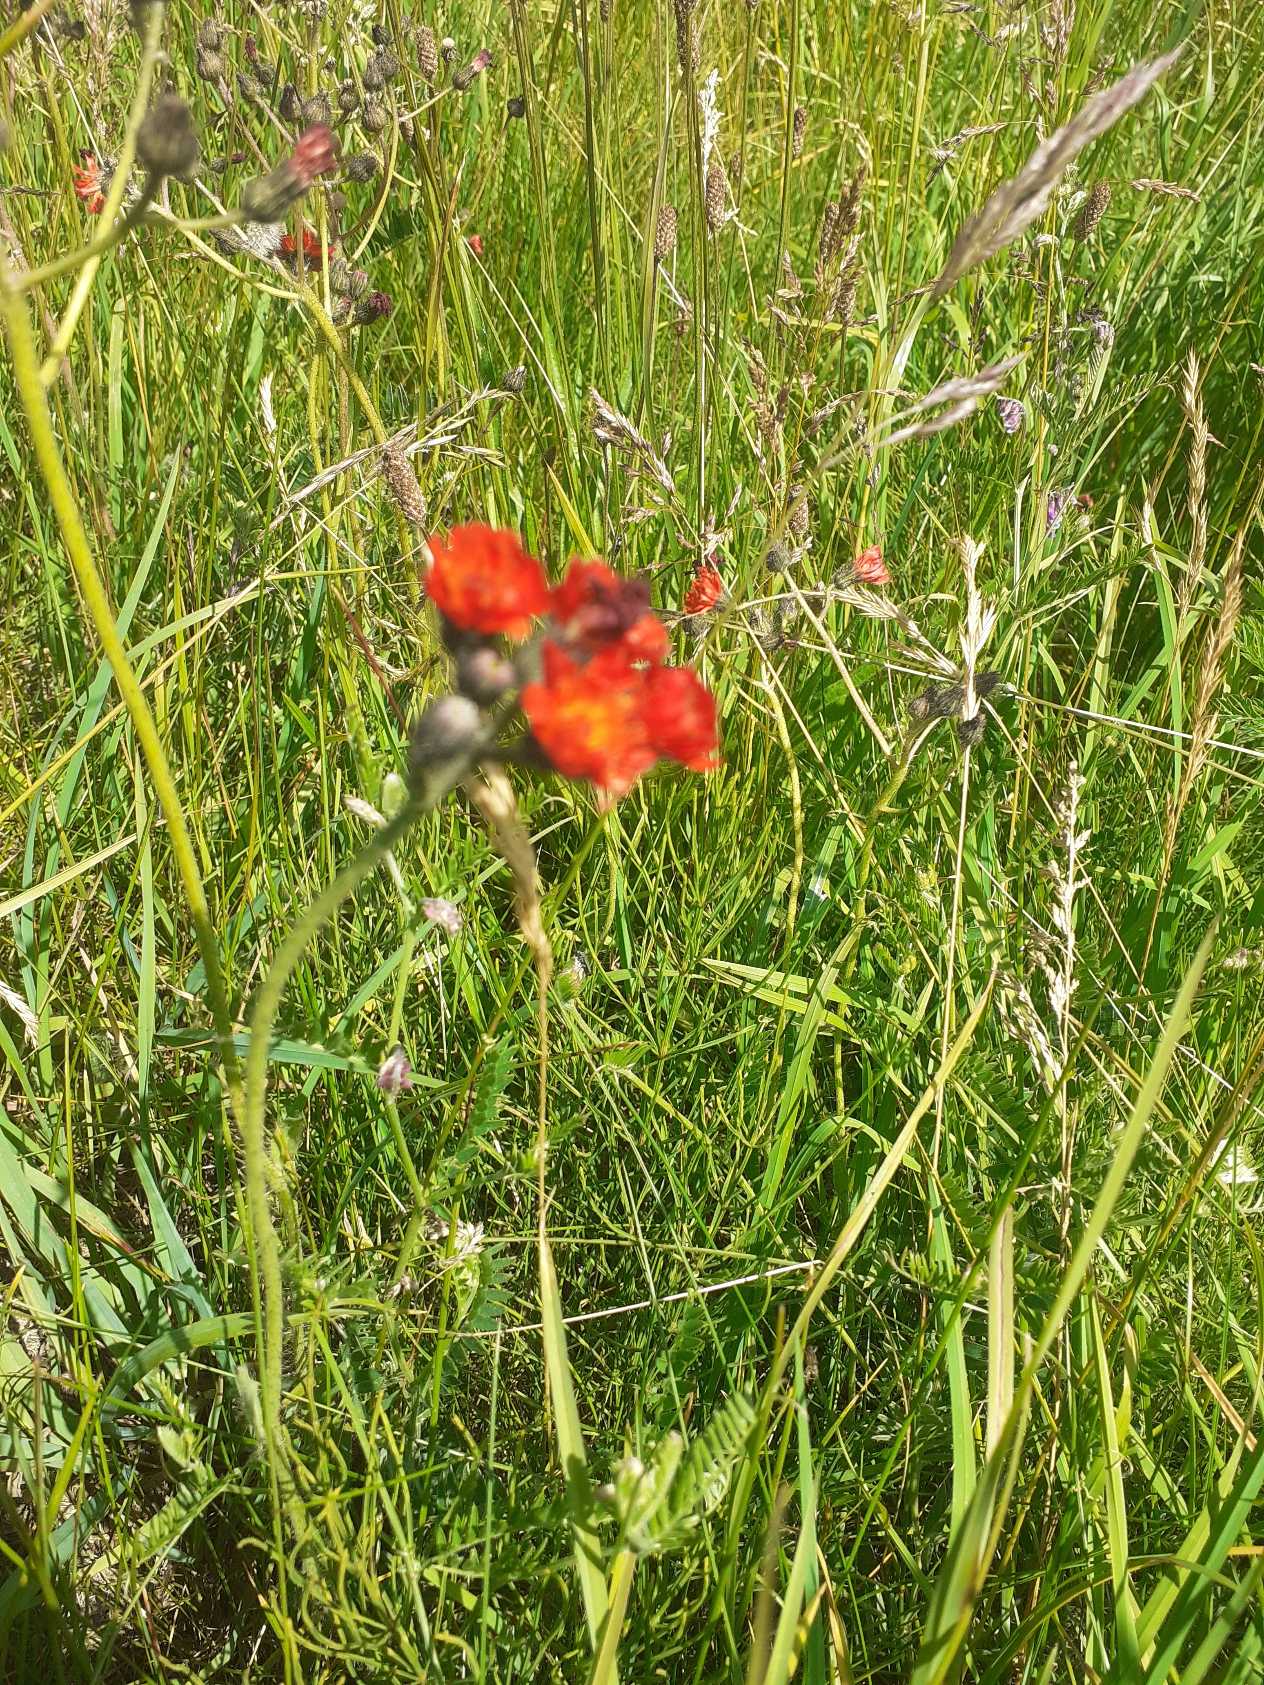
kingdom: Plantae
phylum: Tracheophyta
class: Magnoliopsida
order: Asterales
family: Asteraceae
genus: Pilosella
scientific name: Pilosella aurantiaca
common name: Pomerans-høgeurt
